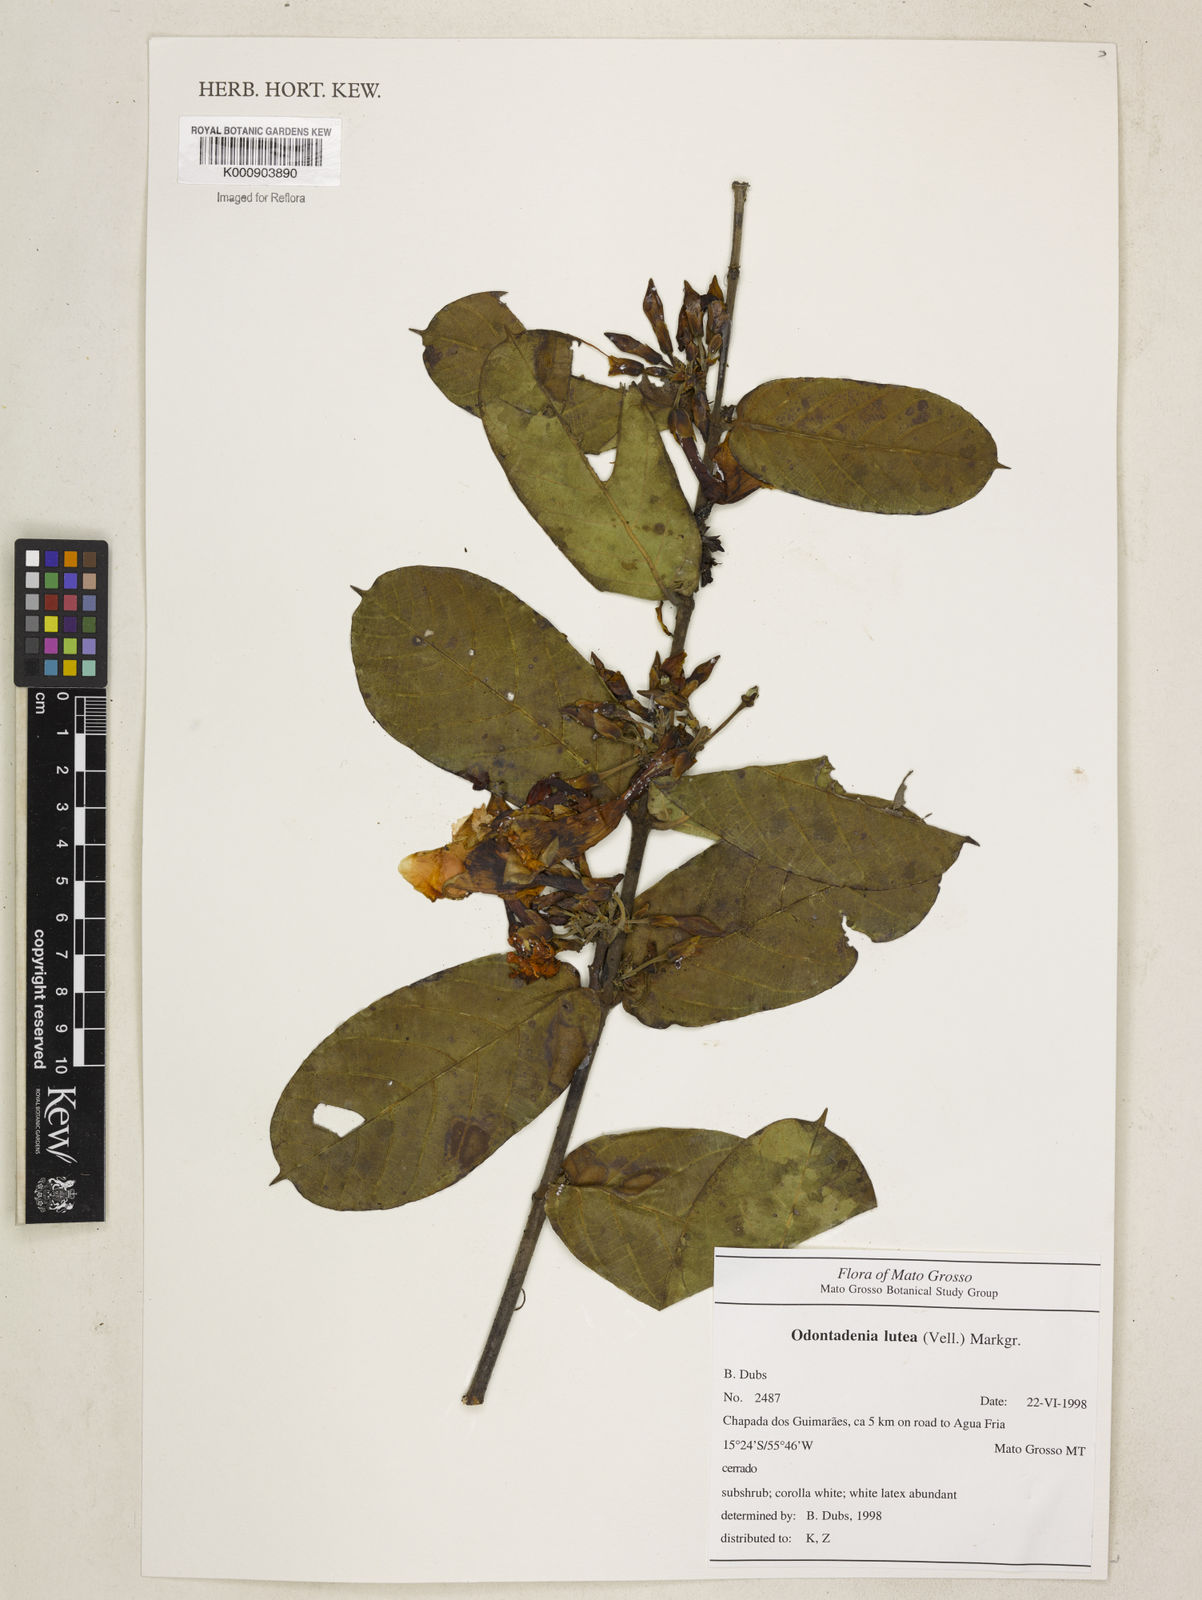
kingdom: Plantae
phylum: Tracheophyta
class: Magnoliopsida
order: Gentianales
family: Apocynaceae
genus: Odontadenia
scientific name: Odontadenia lutea
